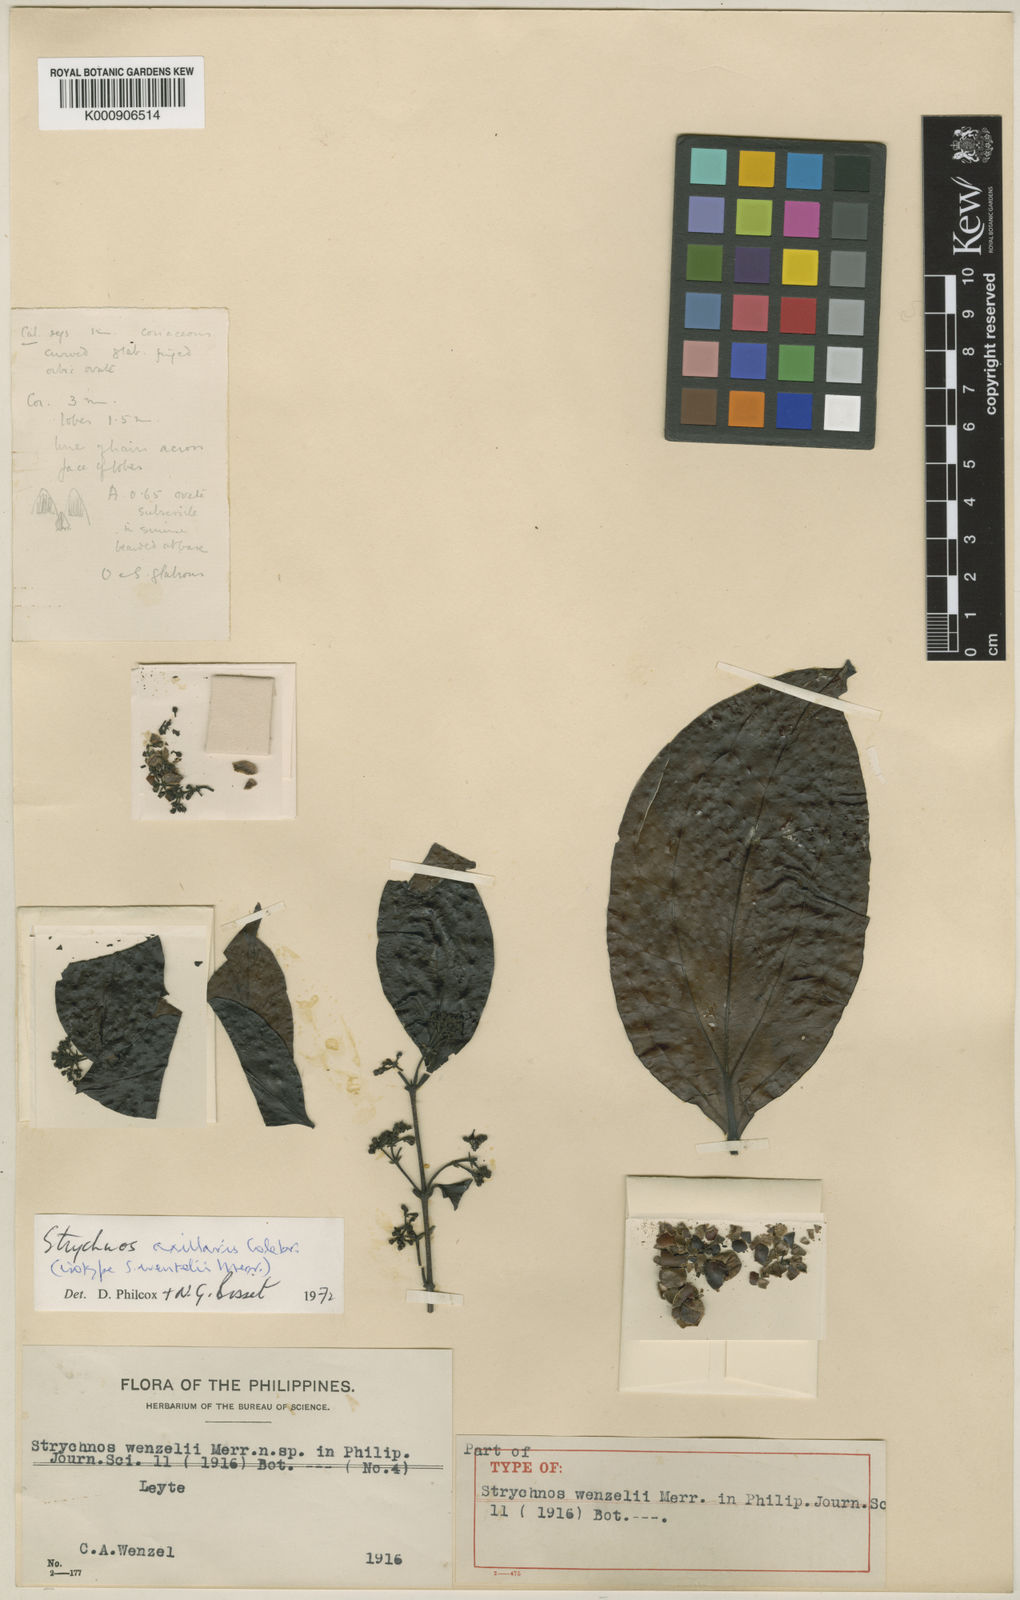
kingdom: Plantae
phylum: Tracheophyta
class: Magnoliopsida
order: Gentianales
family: Loganiaceae
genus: Strychnos
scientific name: Strychnos axillaris
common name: Strychninebush
